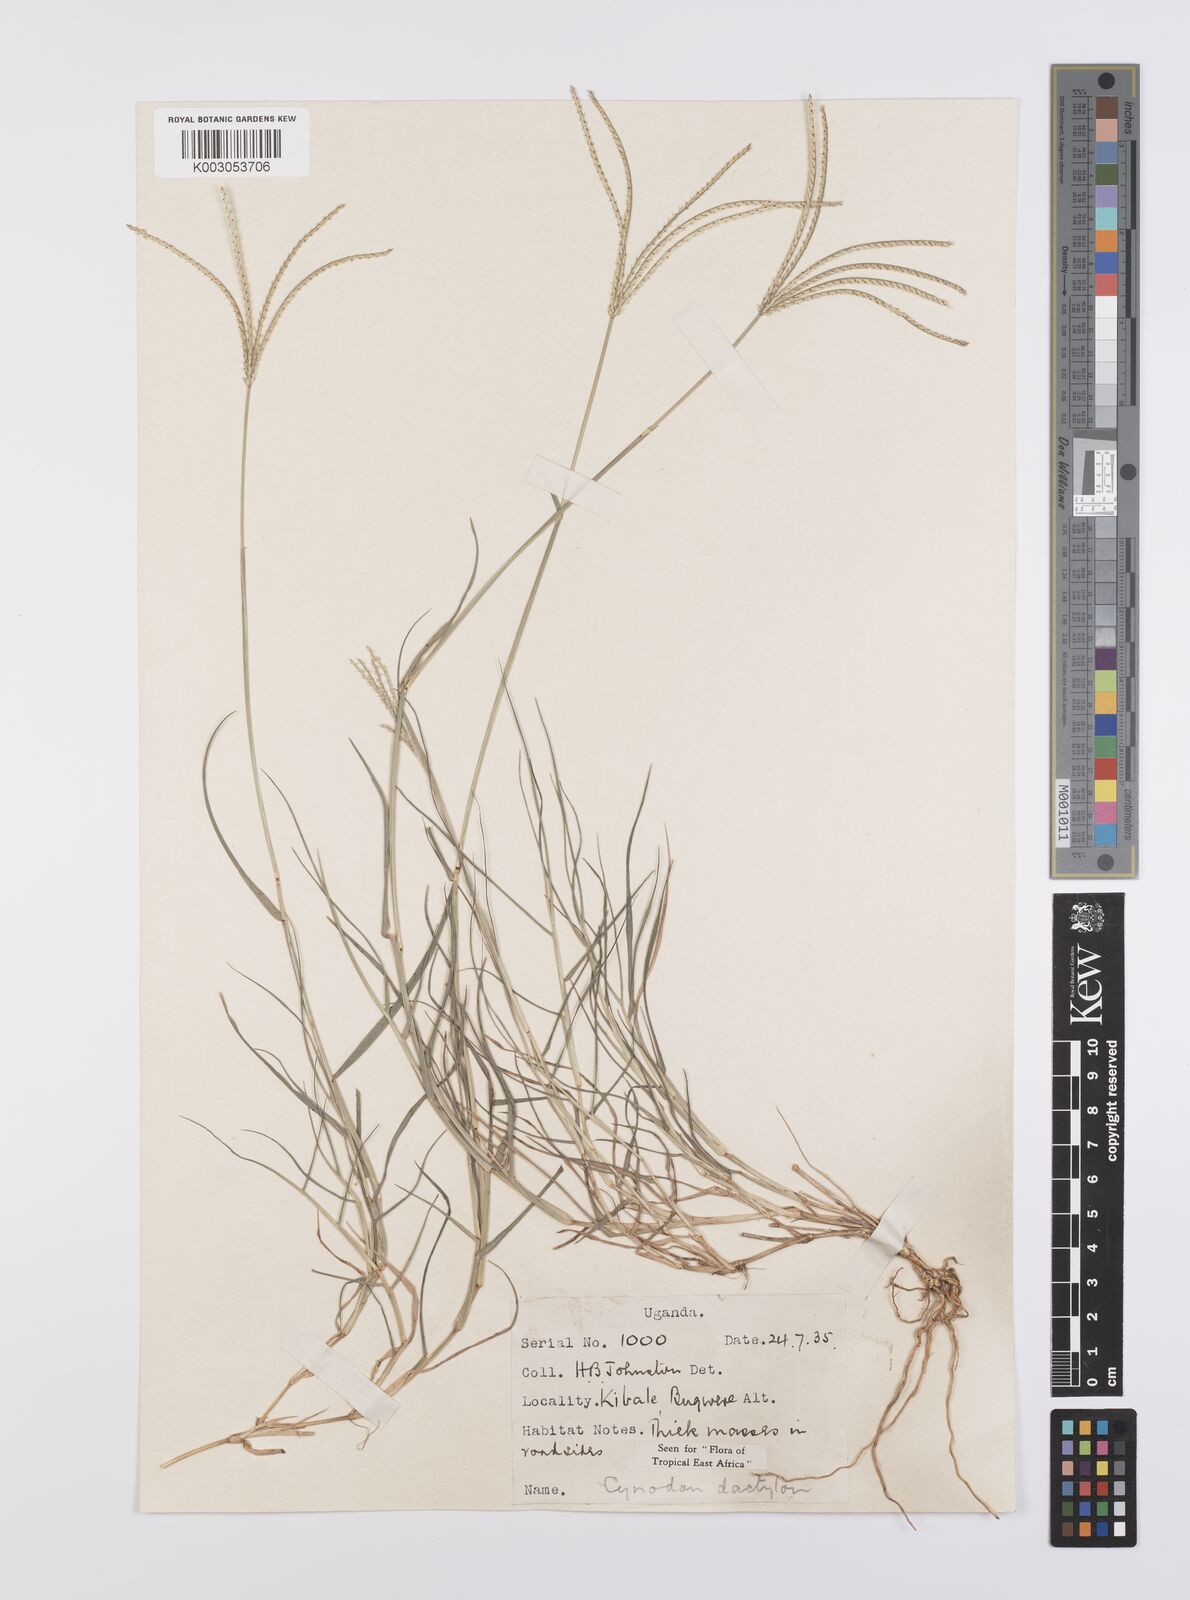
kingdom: Plantae
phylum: Tracheophyta
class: Liliopsida
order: Poales
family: Poaceae
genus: Cynodon
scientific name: Cynodon dactylon
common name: Bermuda grass
